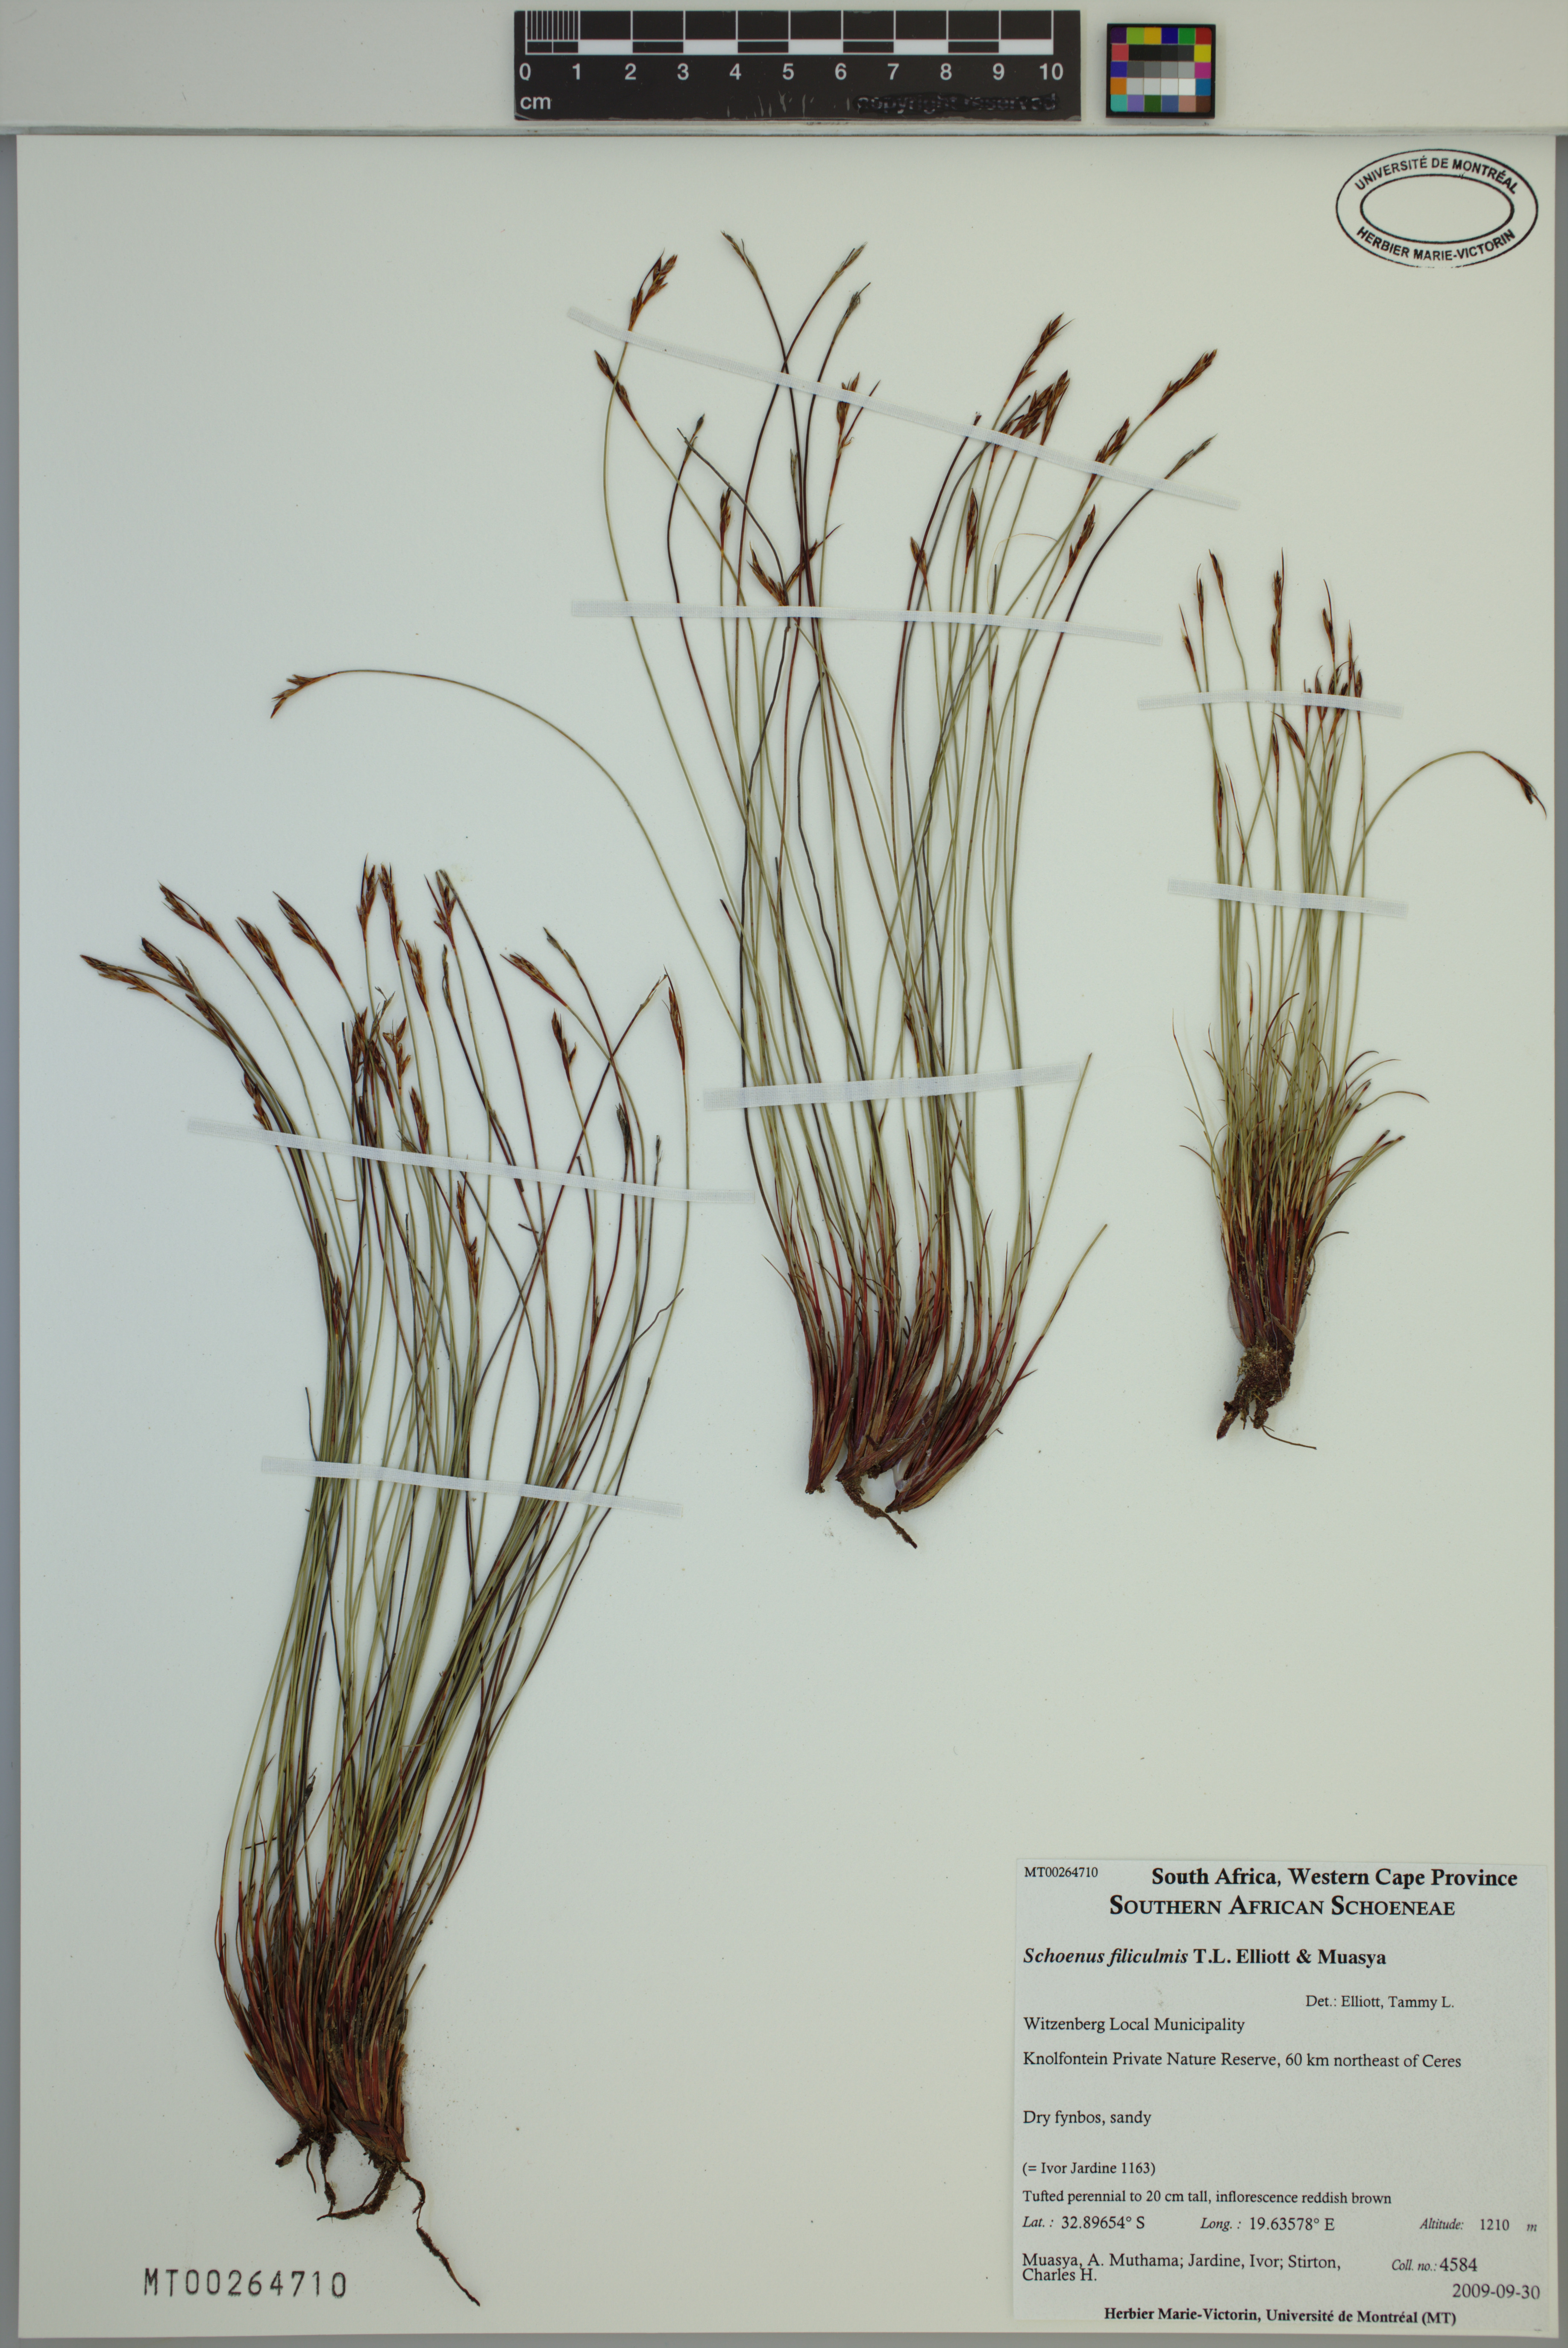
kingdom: Plantae
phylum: Tracheophyta
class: Liliopsida
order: Poales
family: Cyperaceae
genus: Schoenus
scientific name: Schoenus filiculmis
